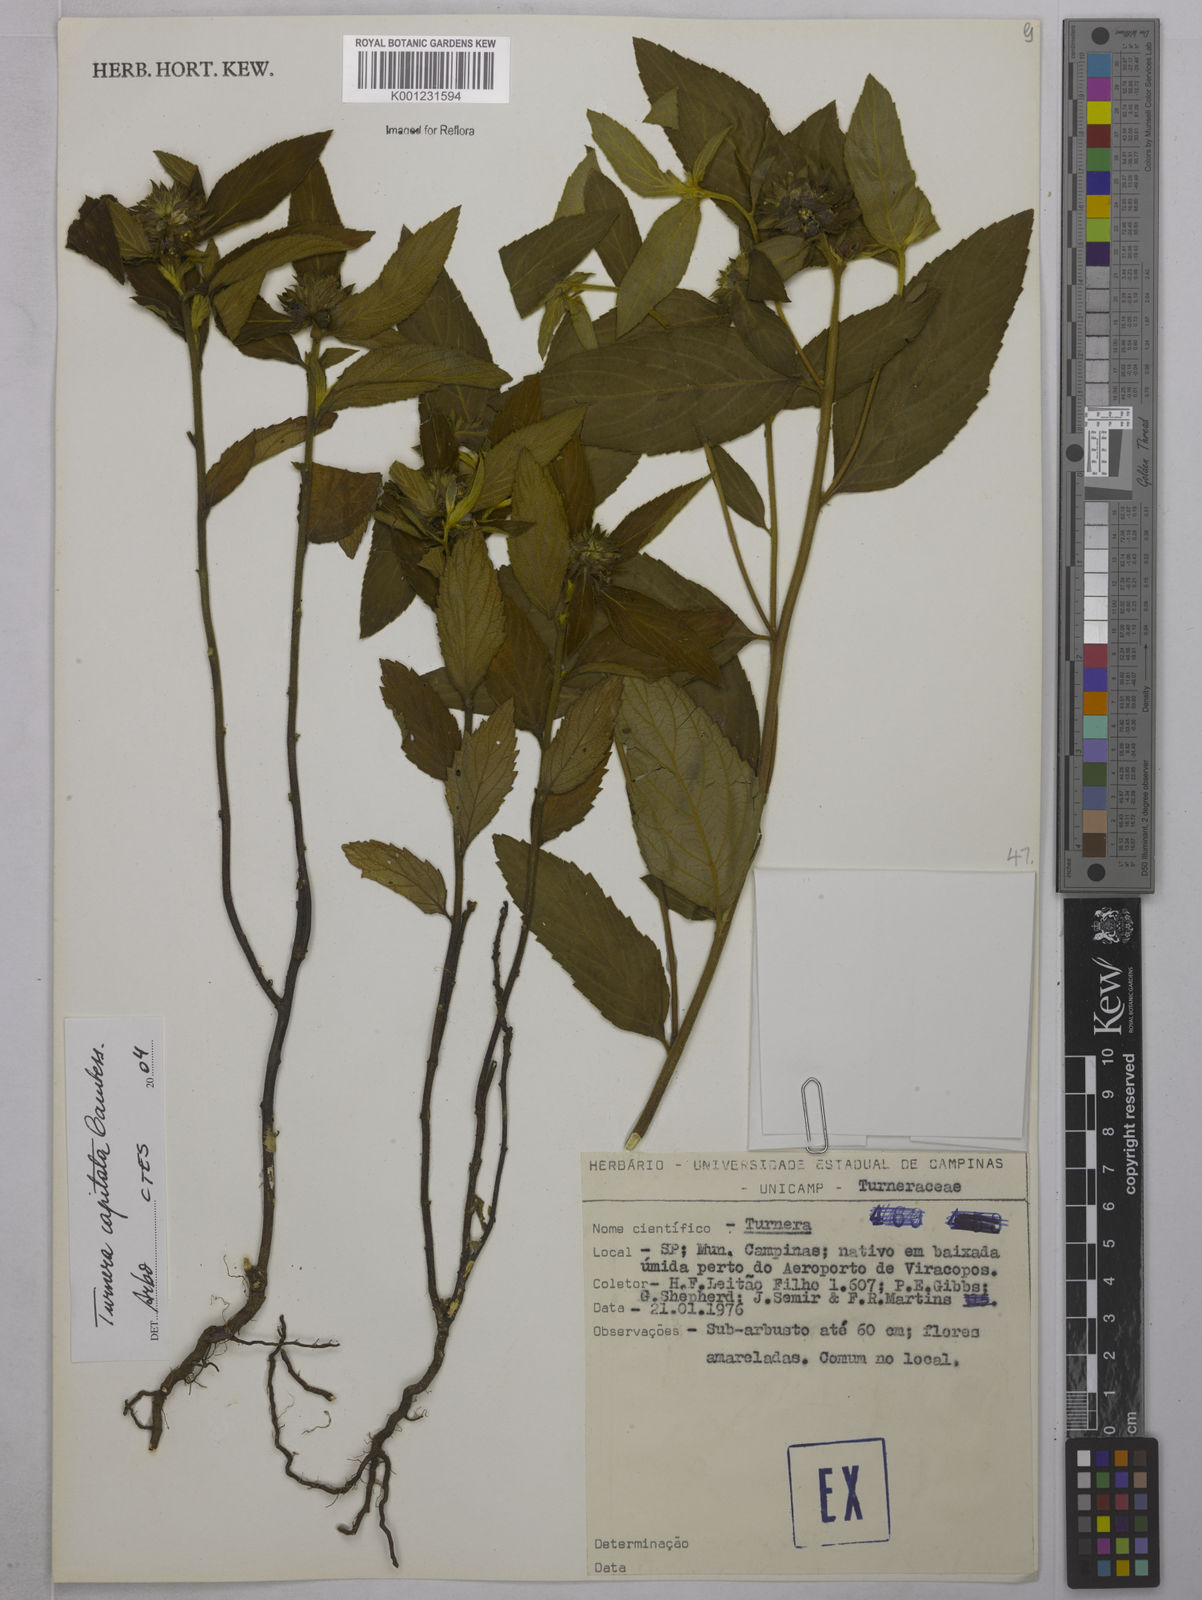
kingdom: Plantae
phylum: Tracheophyta
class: Magnoliopsida
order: Malpighiales
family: Turneraceae
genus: Oxossia
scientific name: Oxossia capitata
